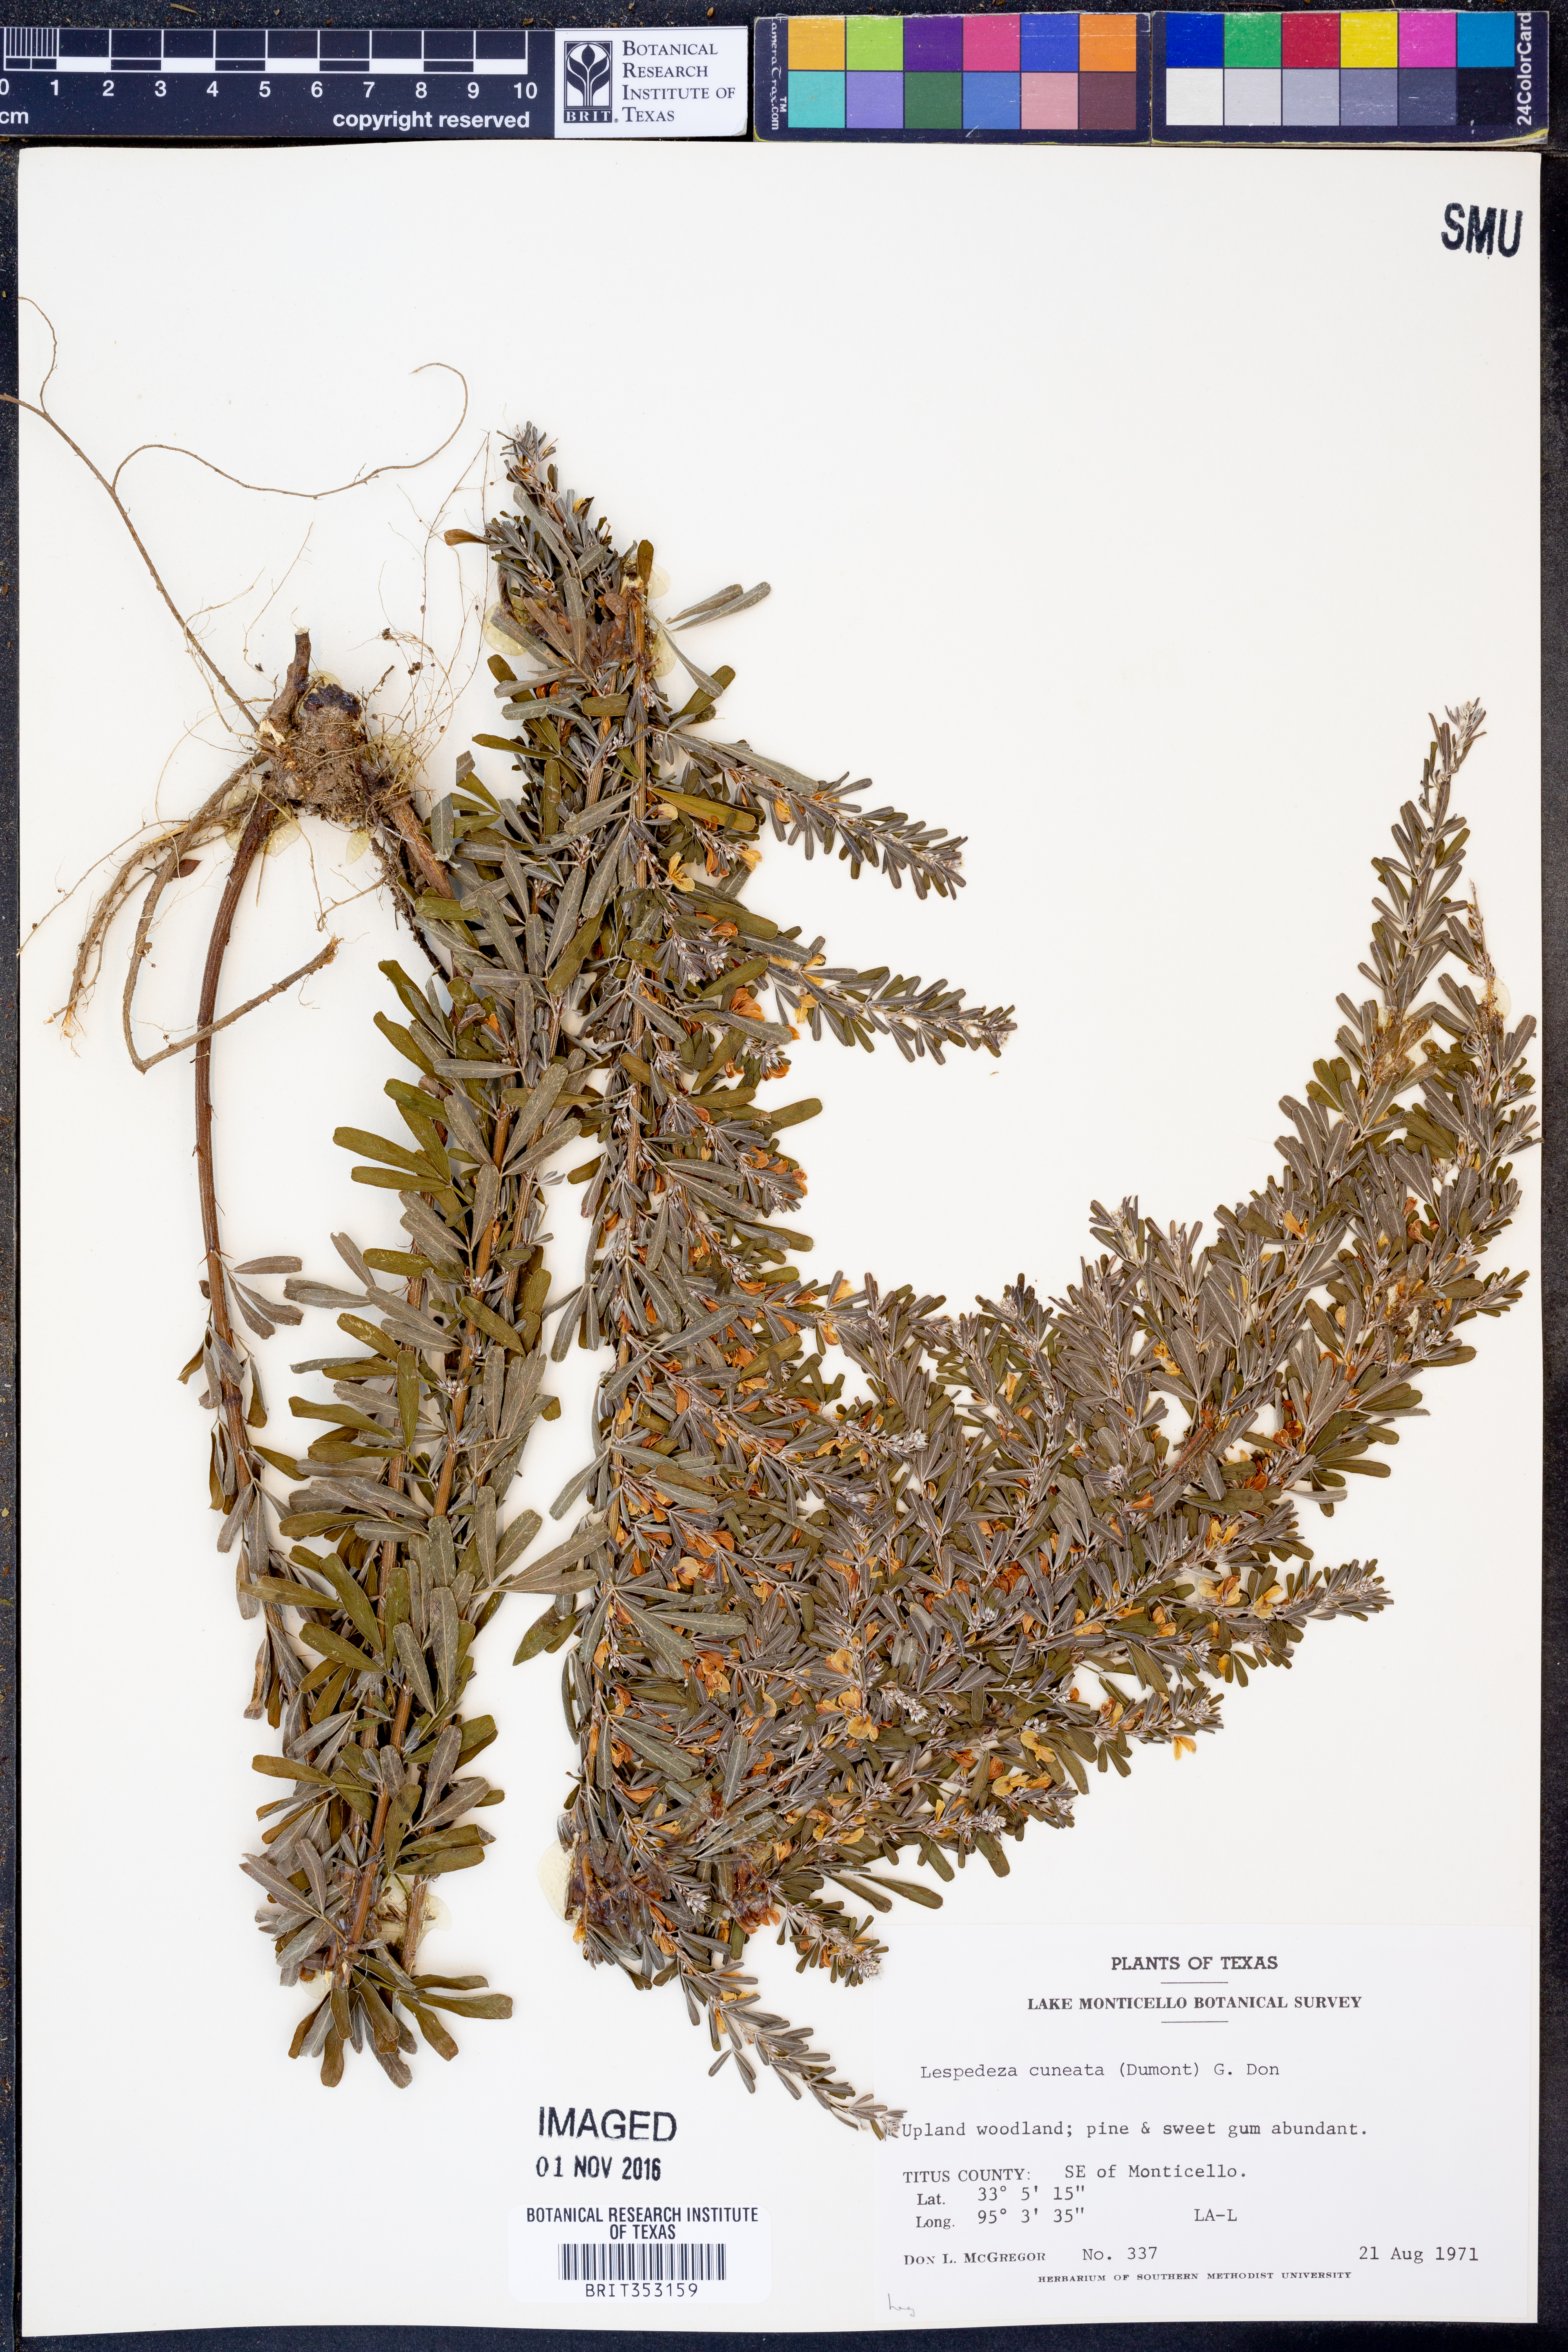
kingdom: Plantae
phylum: Tracheophyta
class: Magnoliopsida
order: Fabales
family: Fabaceae
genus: Lespedeza
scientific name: Lespedeza cuneata
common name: Chinese bush-clover
